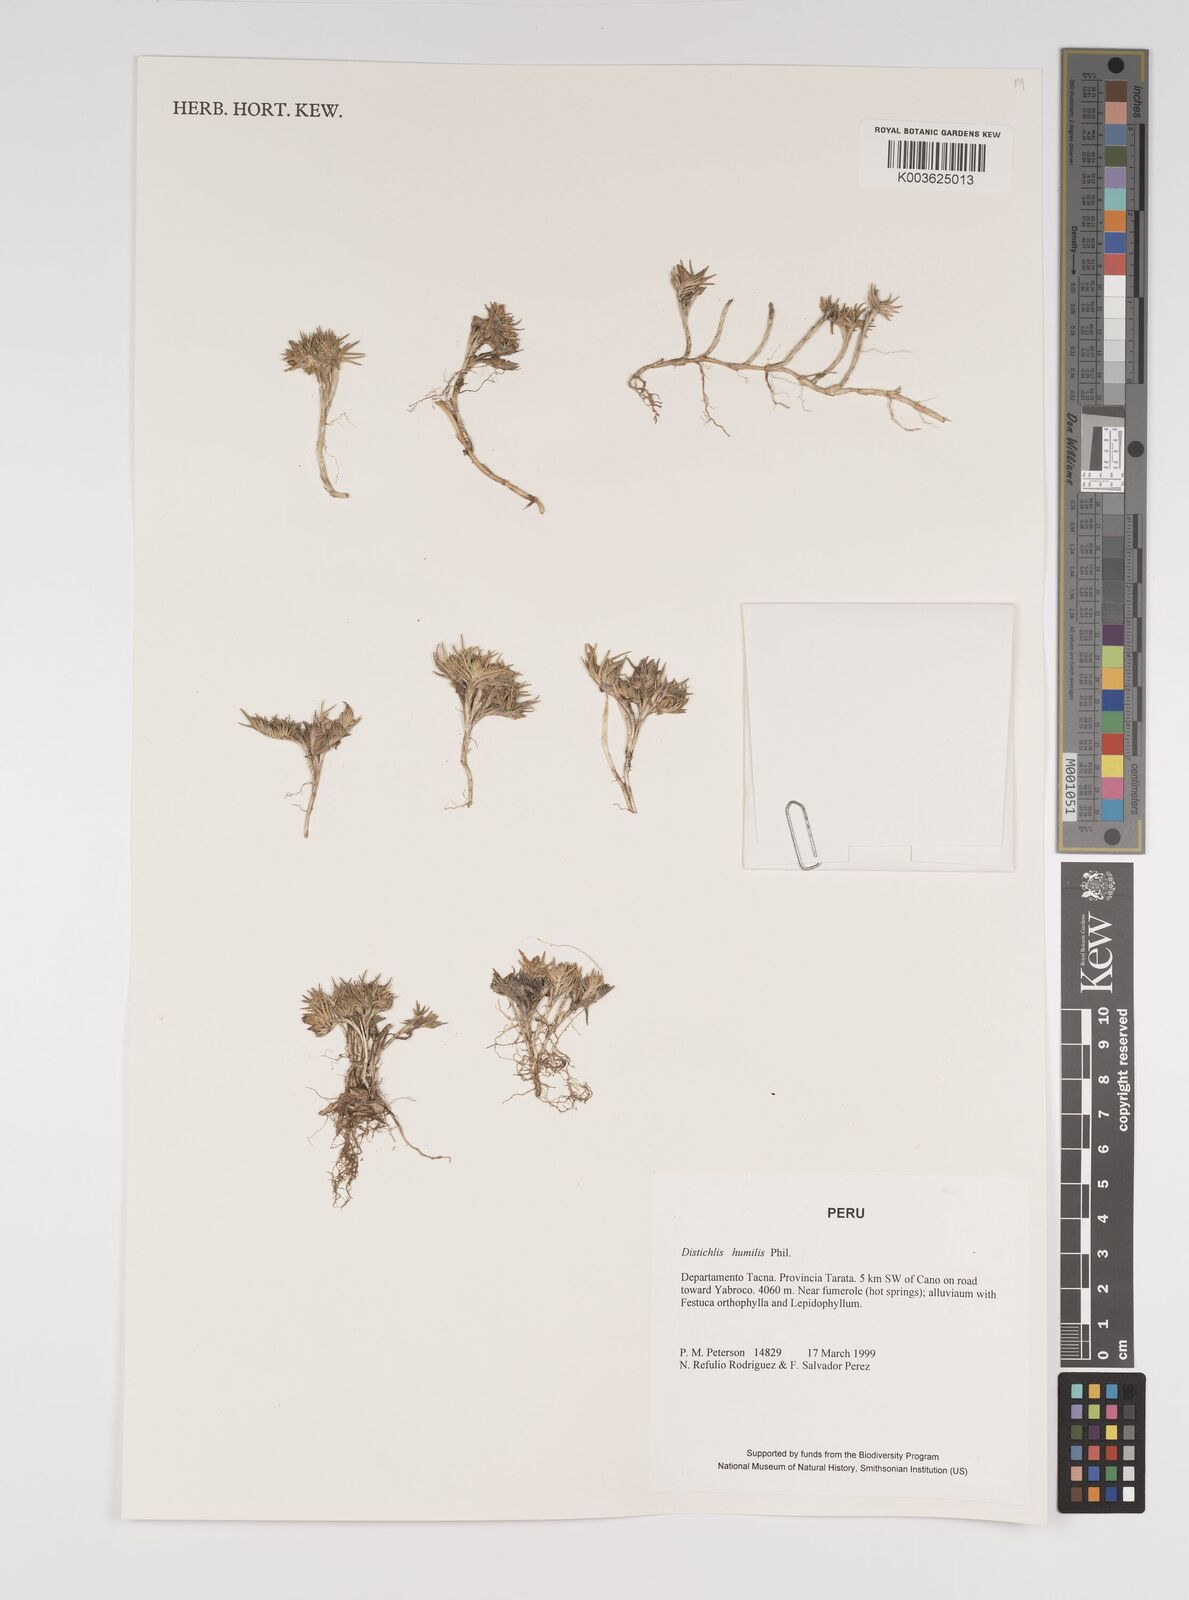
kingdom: Plantae
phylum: Tracheophyta
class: Liliopsida
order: Poales
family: Poaceae
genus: Distichlis
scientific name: Distichlis humilis
